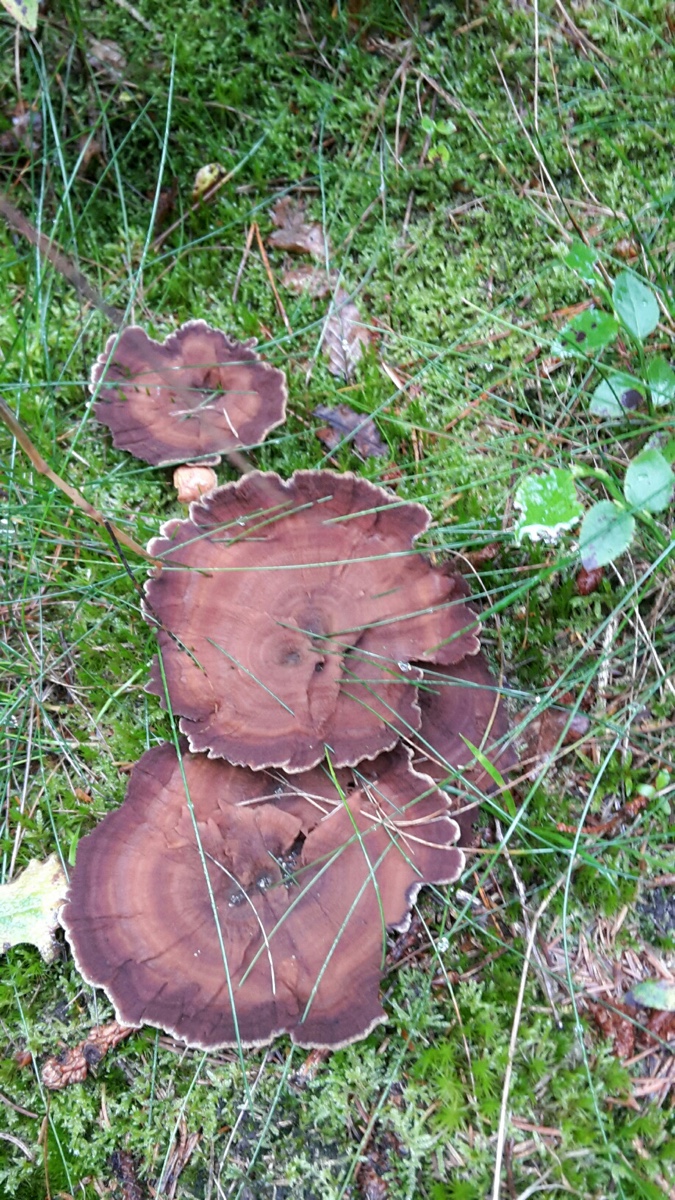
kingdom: Fungi
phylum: Basidiomycota
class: Agaricomycetes
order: Hymenochaetales
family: Hymenochaetaceae
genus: Coltricia
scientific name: Coltricia perennis
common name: almindelig sandporesvamp
